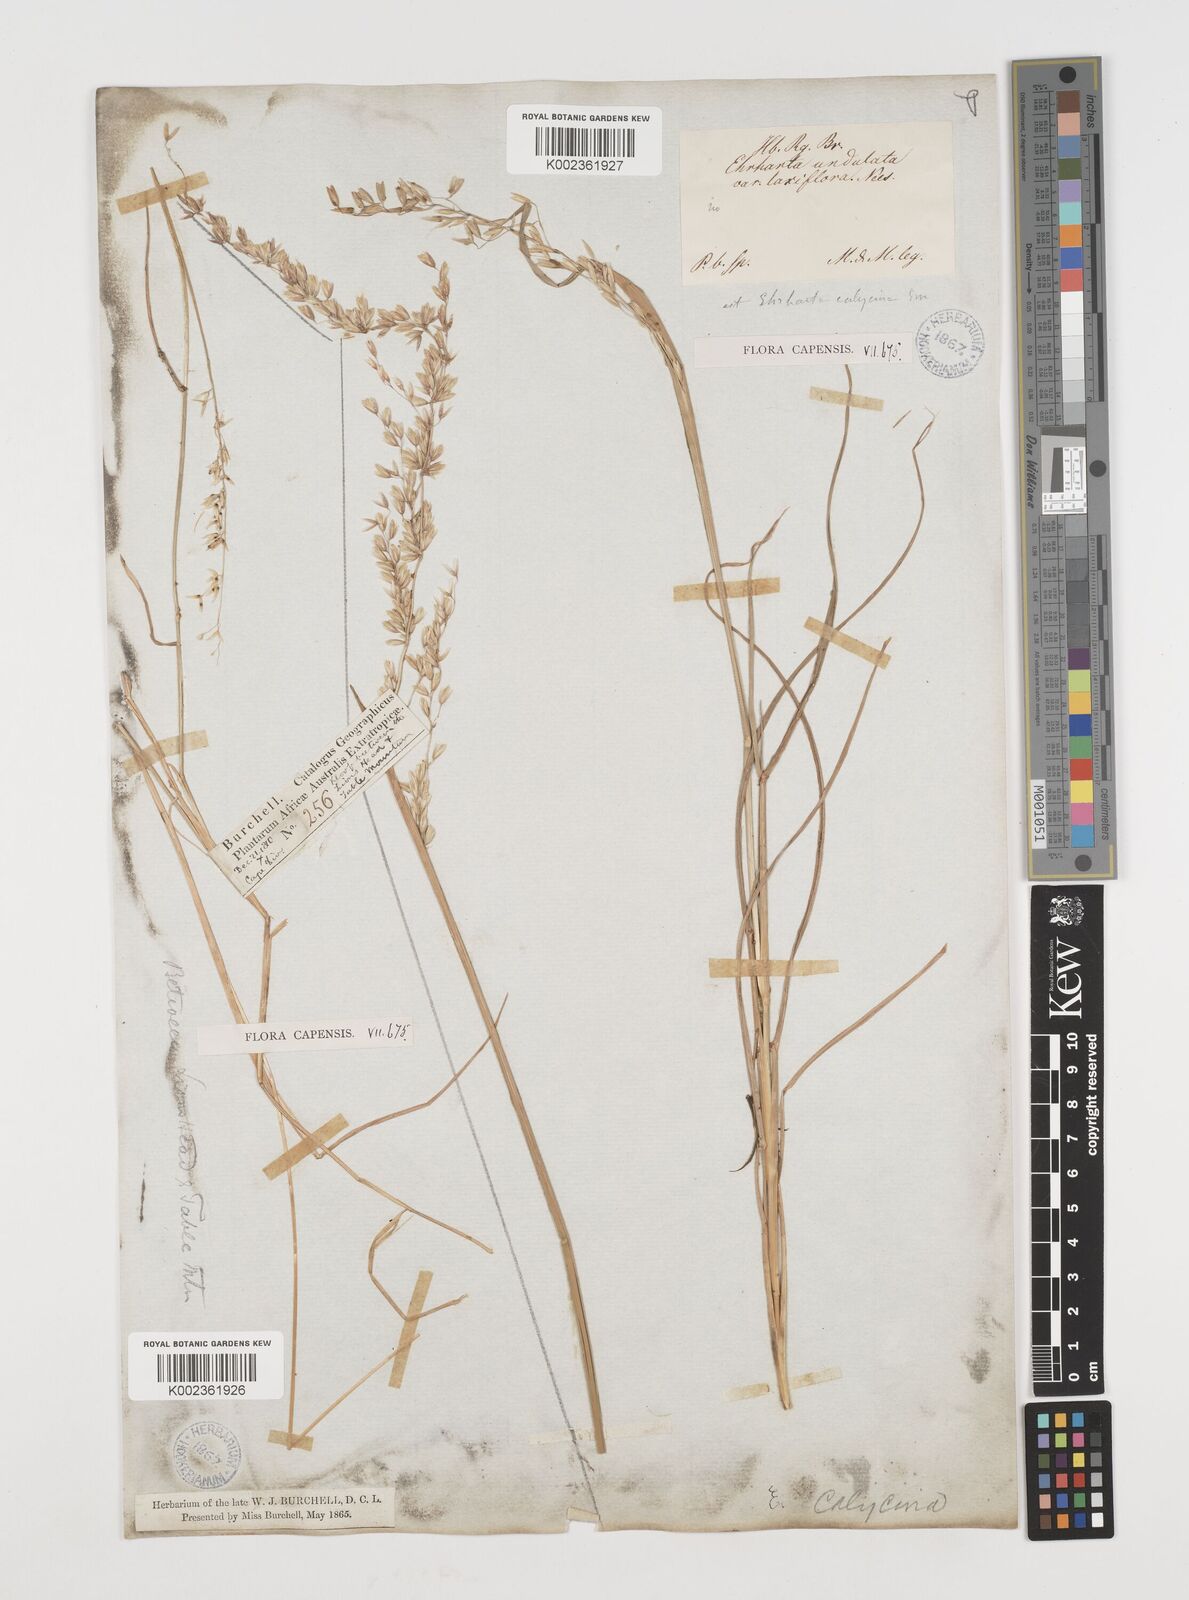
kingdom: Plantae
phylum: Tracheophyta
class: Liliopsida
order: Poales
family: Poaceae
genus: Ehrharta
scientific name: Ehrharta calycina
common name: Perennial veldtgrass
